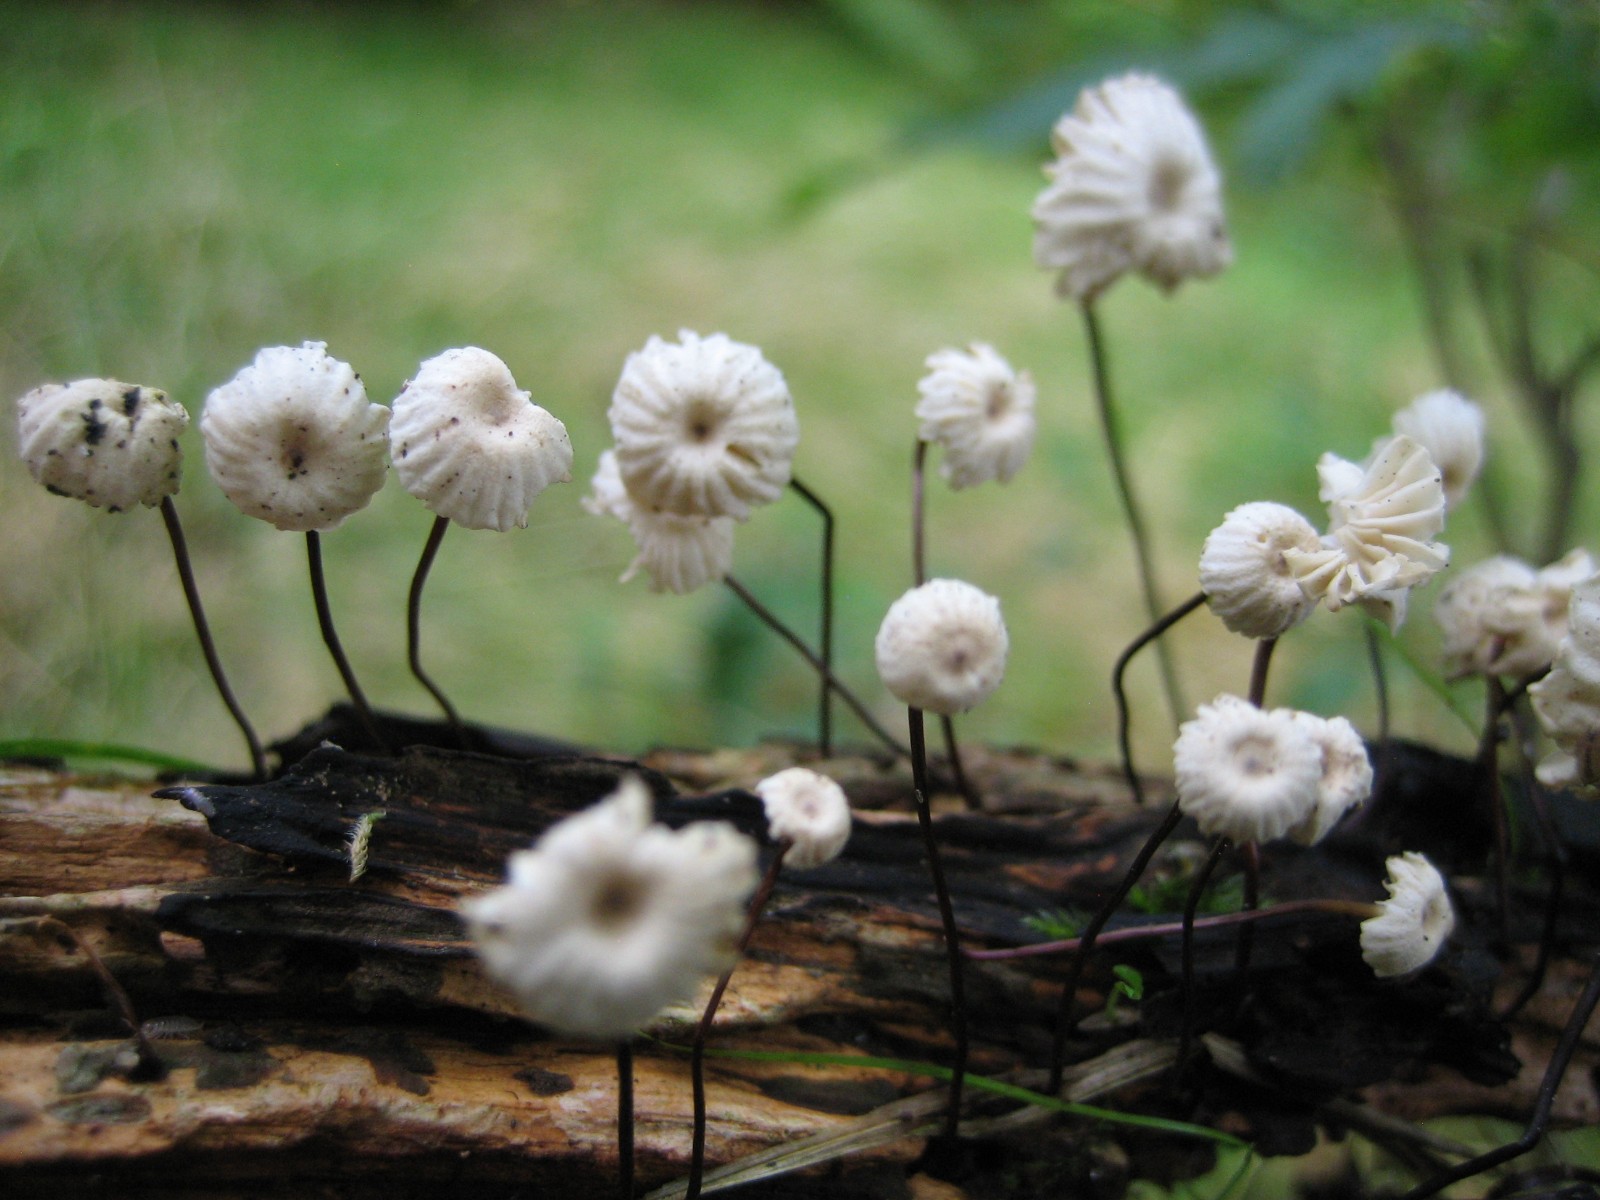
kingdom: Fungi
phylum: Basidiomycota
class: Agaricomycetes
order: Agaricales
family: Marasmiaceae
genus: Marasmius
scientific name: Marasmius rotula
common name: hjul-bruskhat
